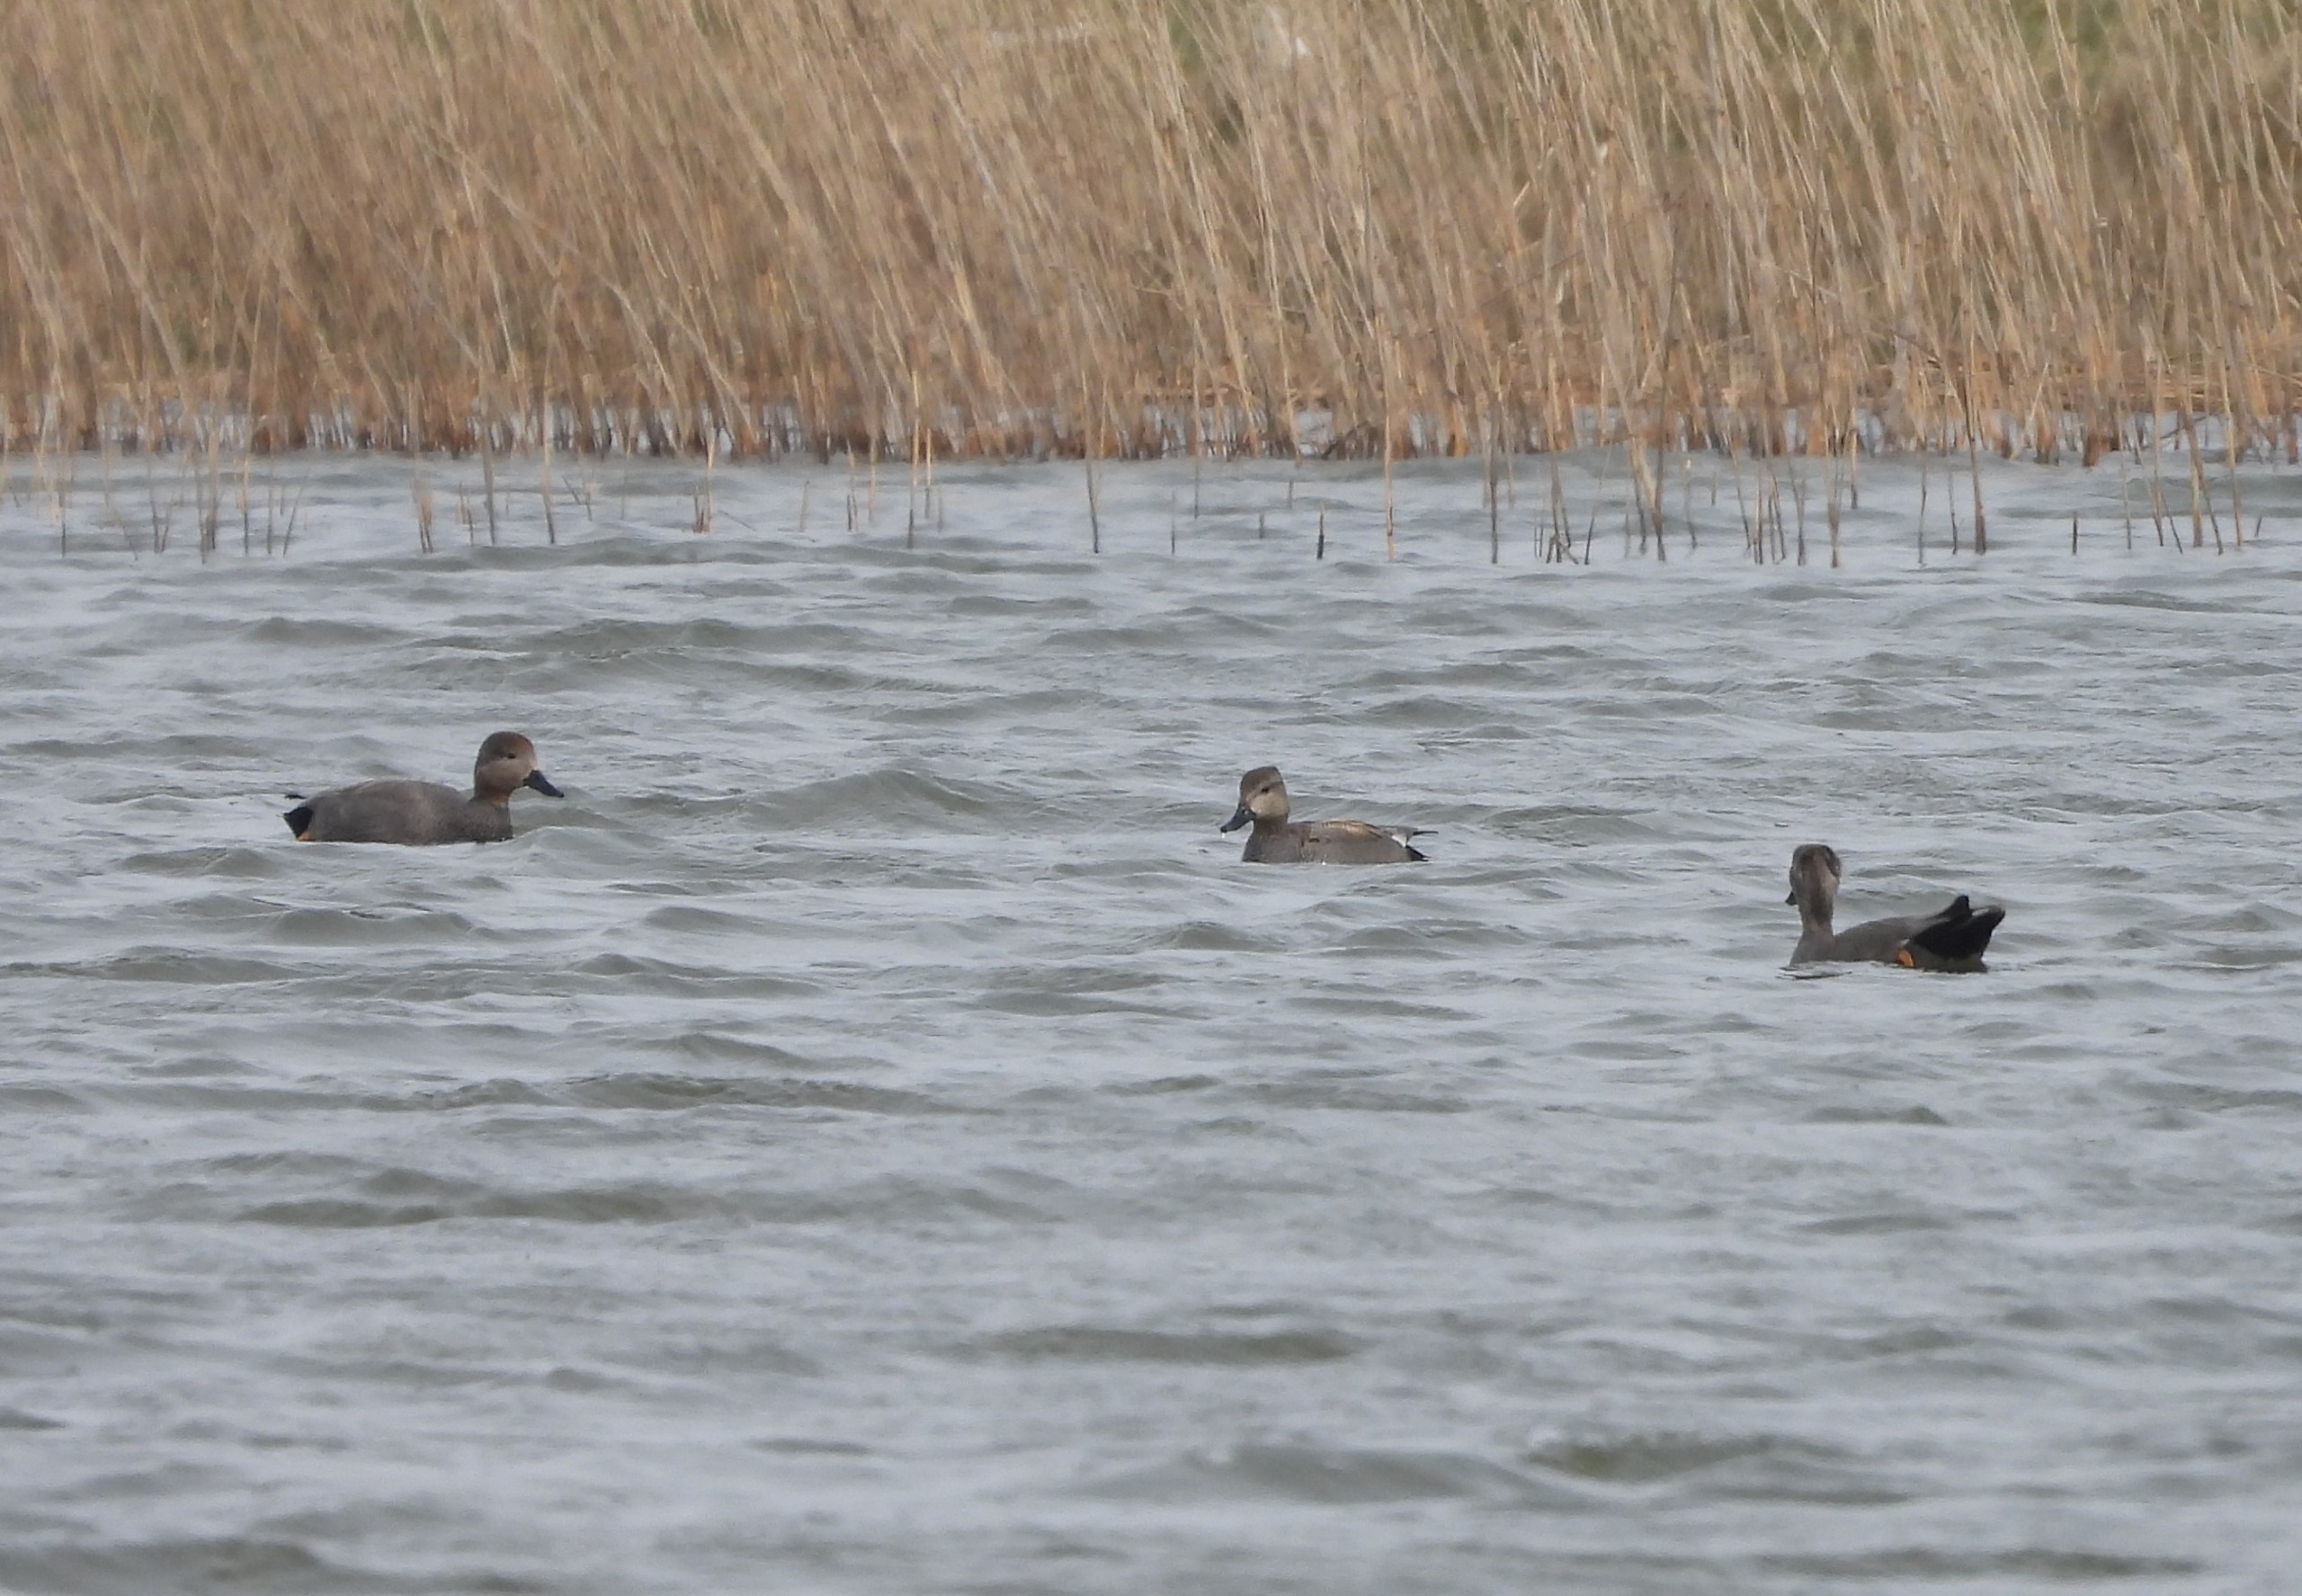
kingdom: Animalia
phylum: Chordata
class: Aves
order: Anseriformes
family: Anatidae
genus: Mareca
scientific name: Mareca strepera
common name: Knarand
